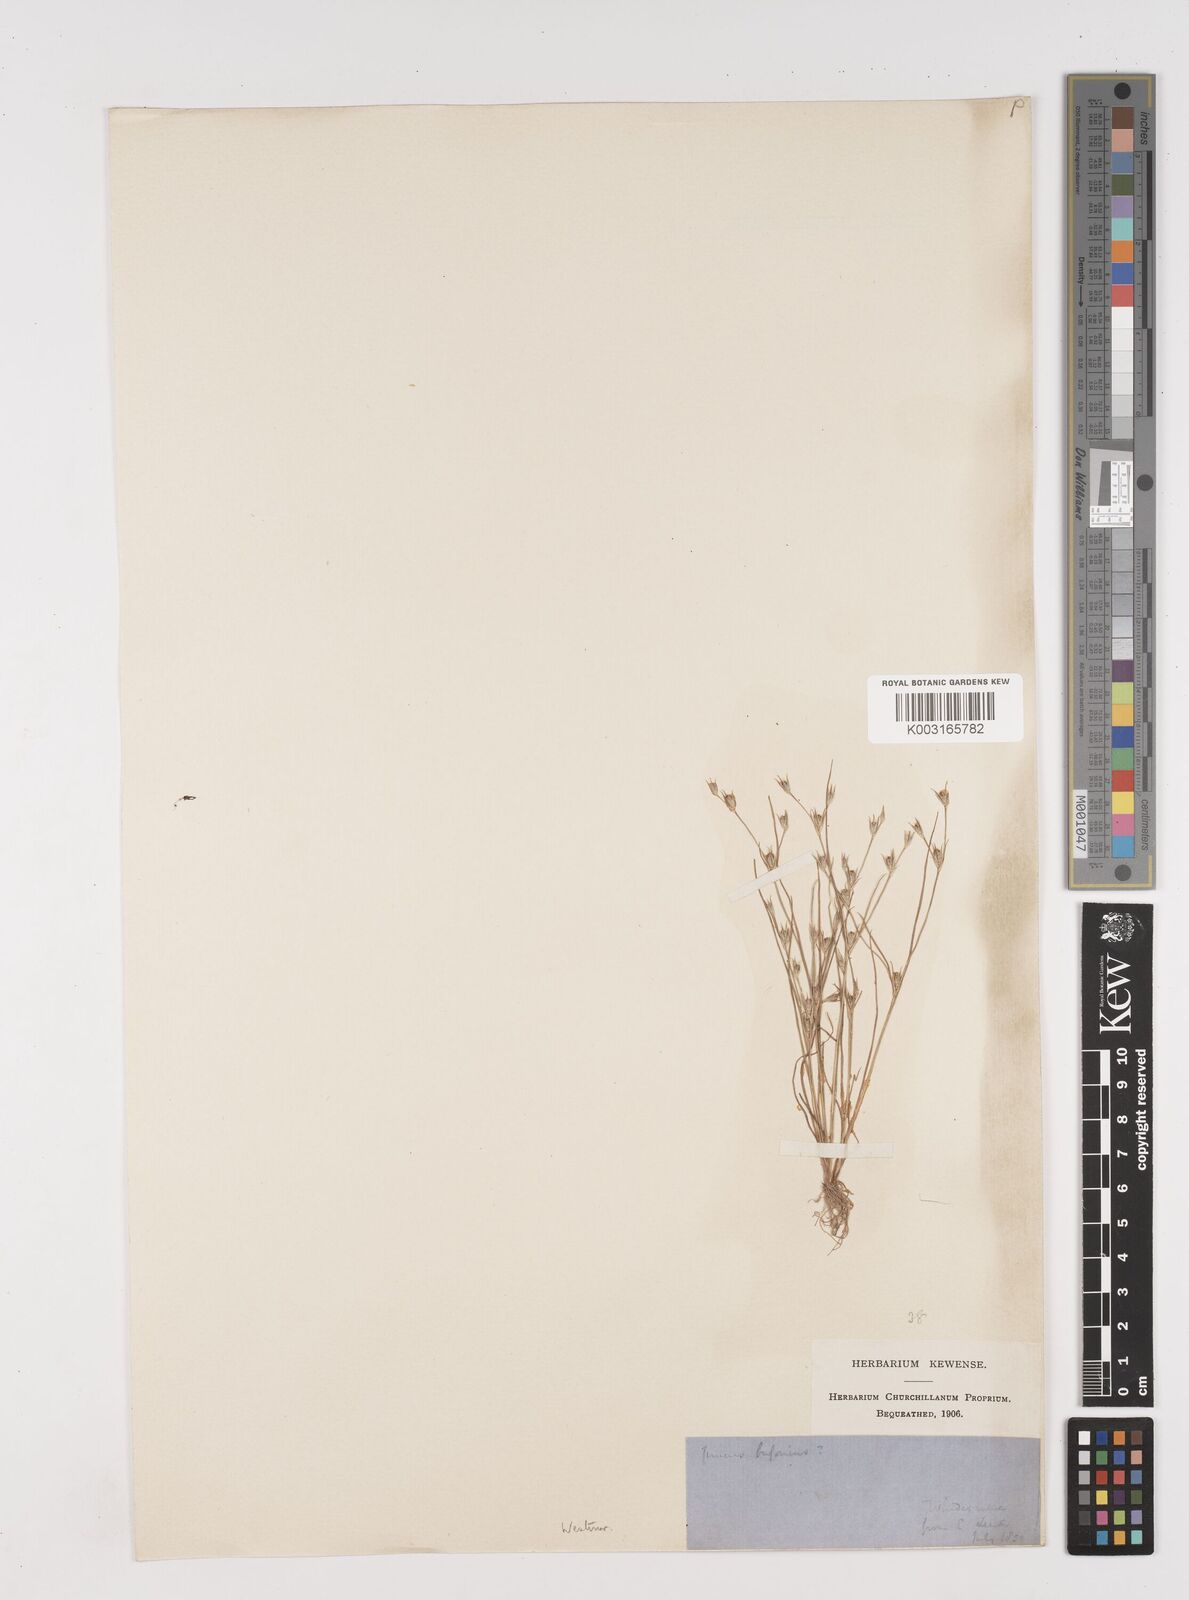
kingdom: Plantae
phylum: Tracheophyta
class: Liliopsida
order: Poales
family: Juncaceae
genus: Juncus
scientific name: Juncus bufonius
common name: Toad rush
